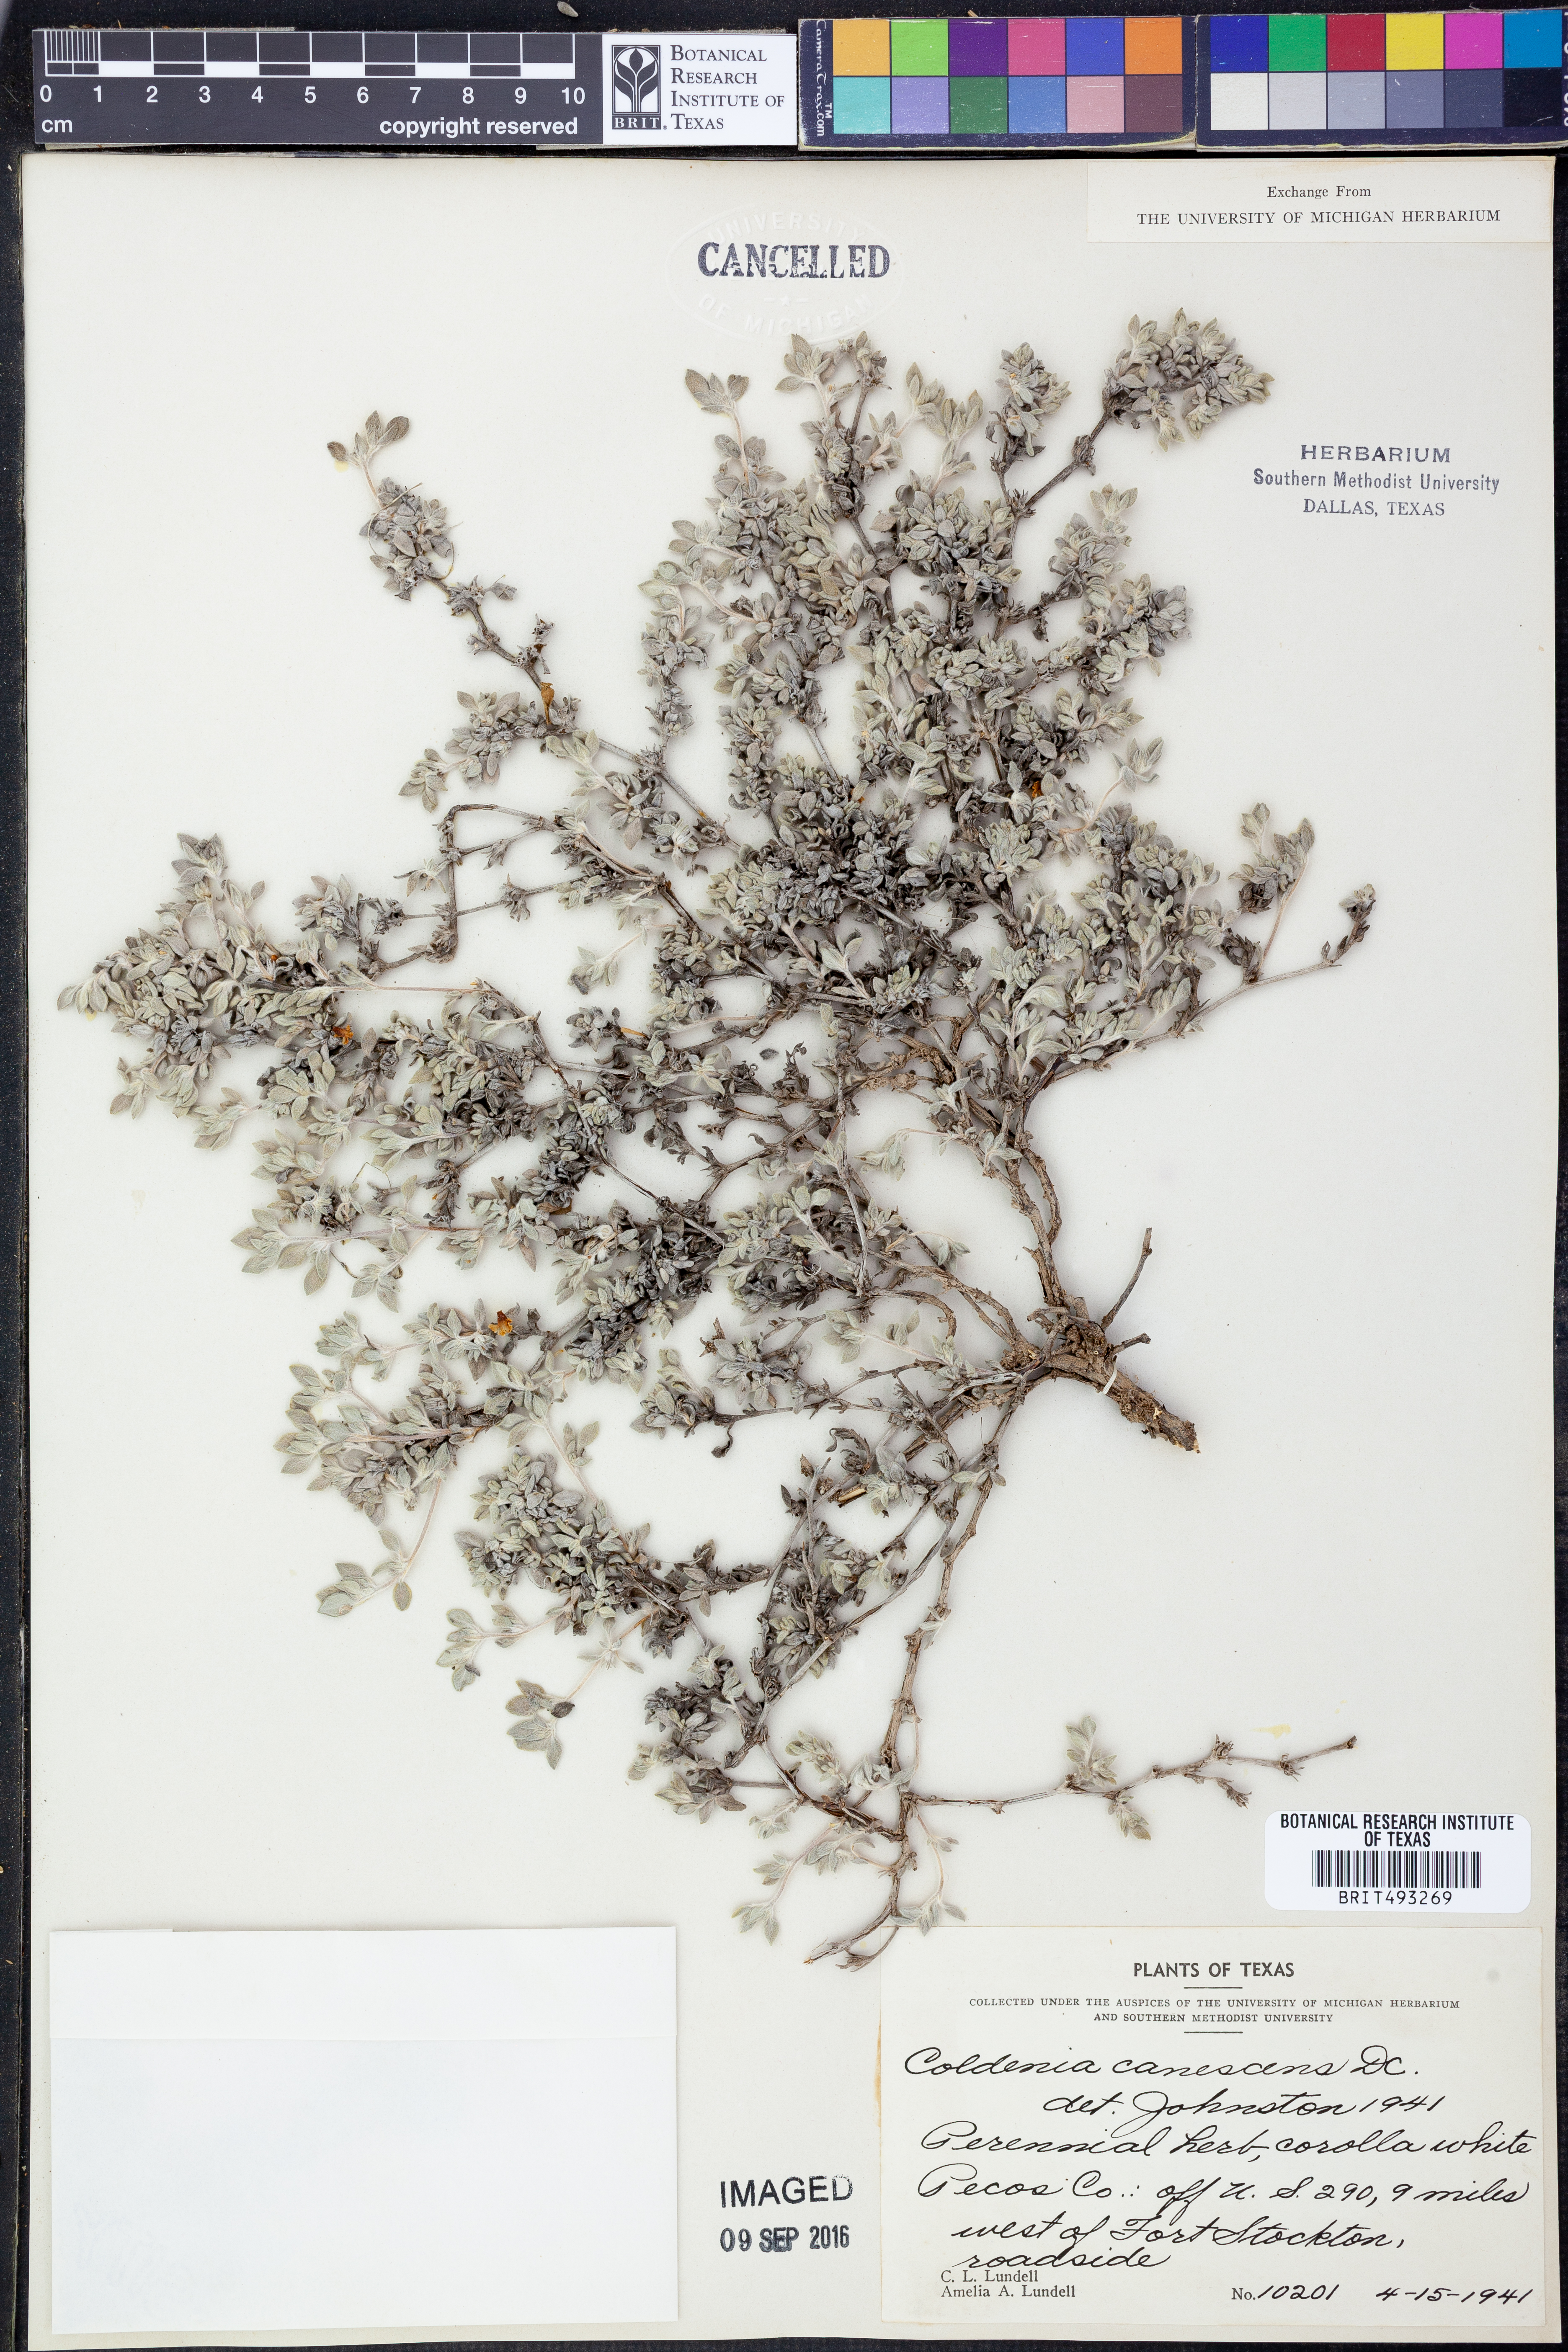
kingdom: Plantae
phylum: Tracheophyta
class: Magnoliopsida
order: Boraginales
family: Ehretiaceae
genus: Tiquilia
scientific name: Tiquilia canescens
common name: Hairy tiquilia
